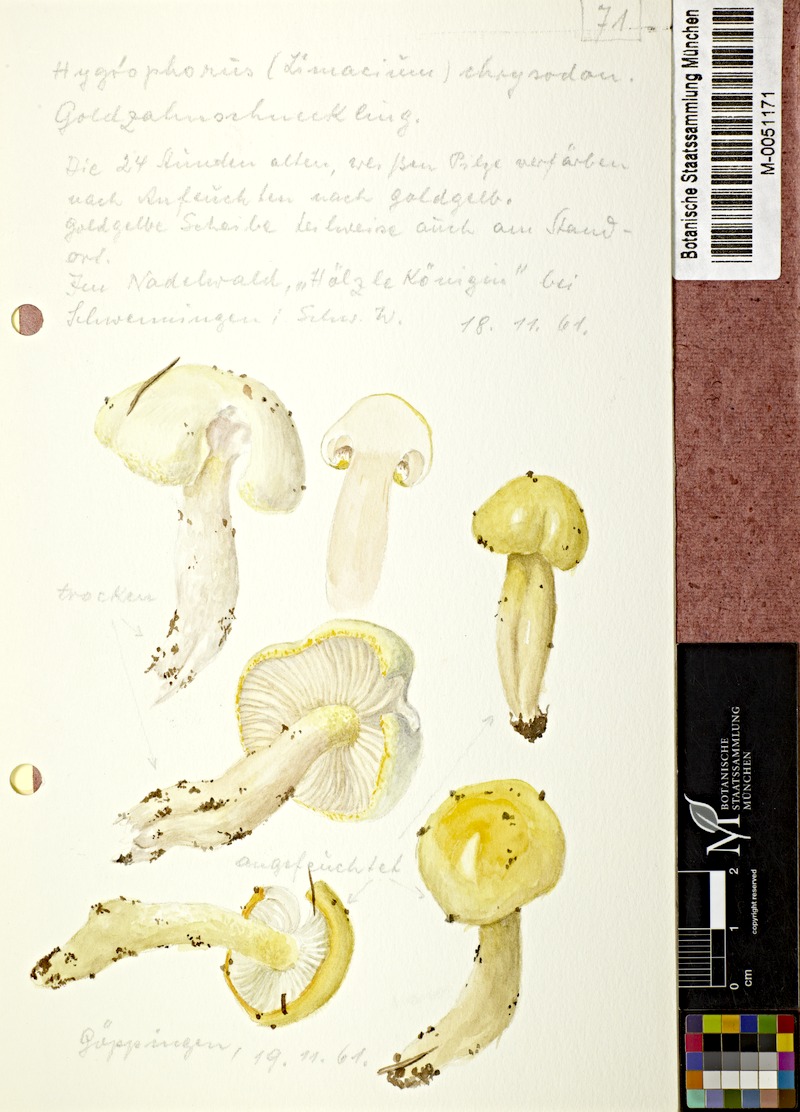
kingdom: Fungi
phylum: Basidiomycota
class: Agaricomycetes
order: Agaricales
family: Hygrophoraceae
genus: Hygrophorus
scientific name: Hygrophorus chrysodon
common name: Gold flecked woodwax
